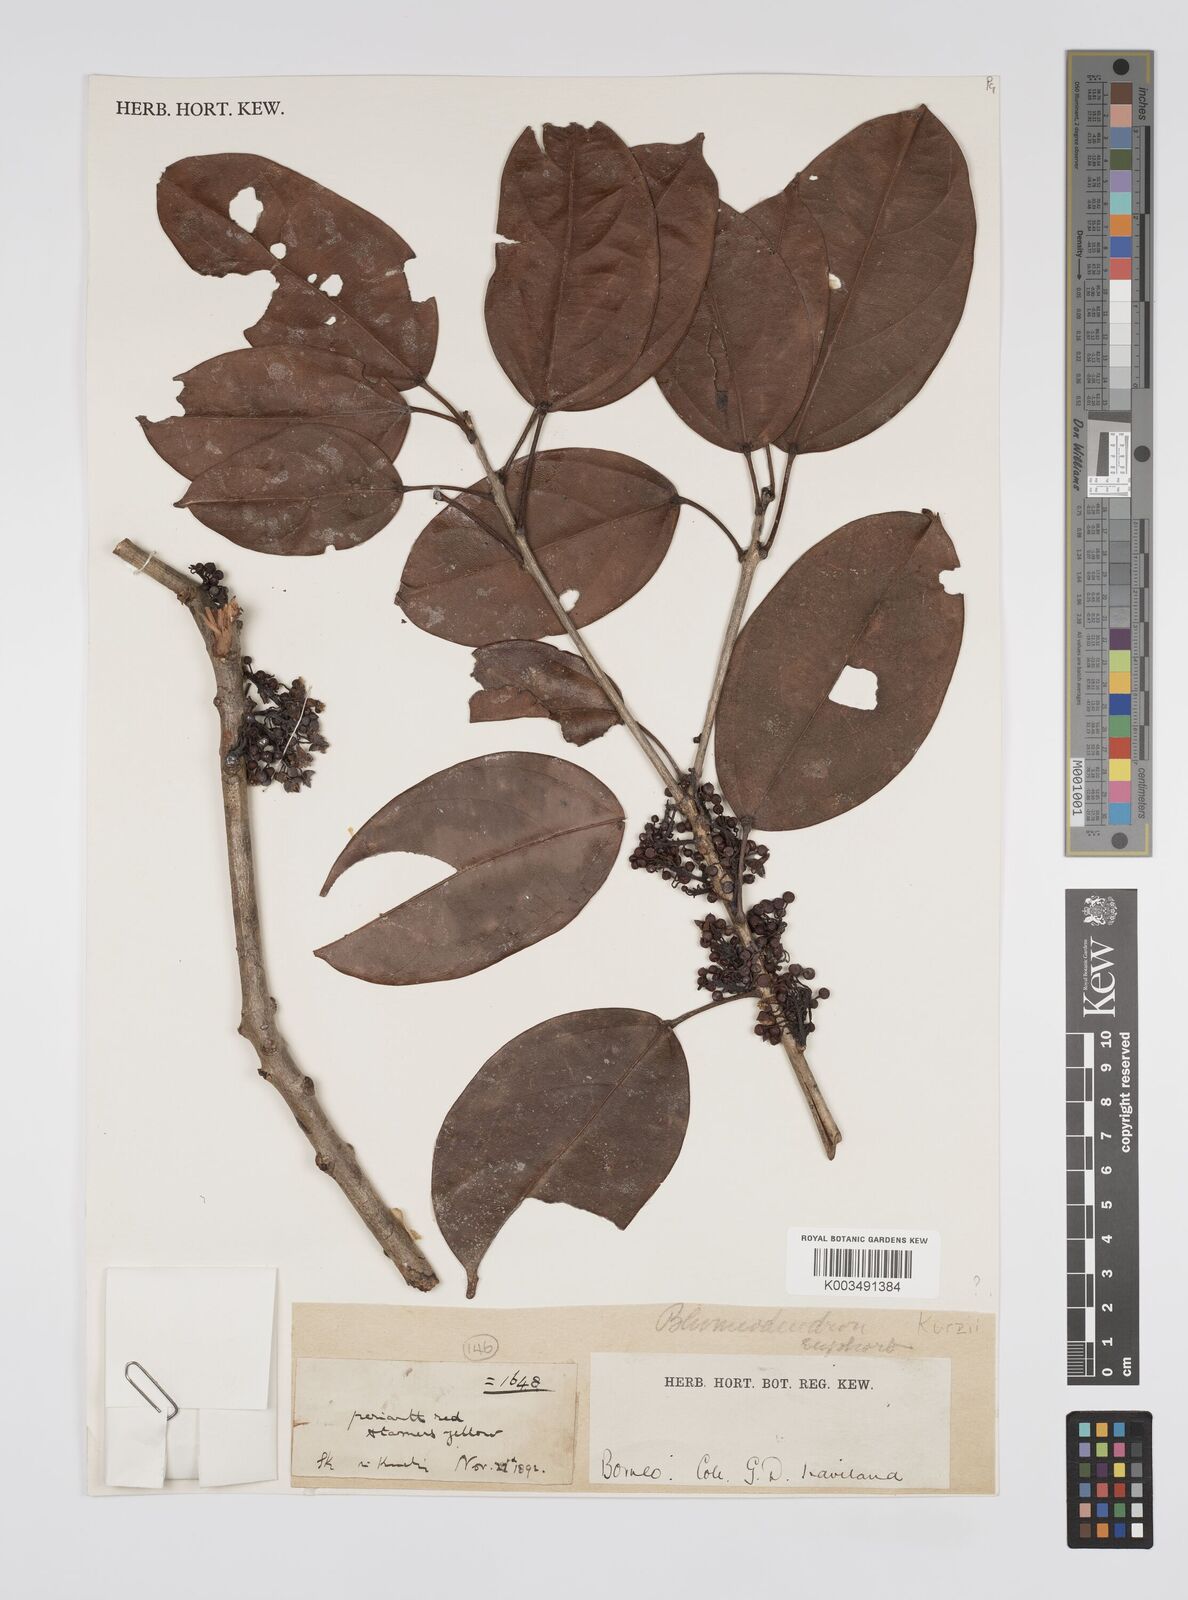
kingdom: Plantae
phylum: Tracheophyta
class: Magnoliopsida
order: Malpighiales
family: Euphorbiaceae
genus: Blumeodendron
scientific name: Blumeodendron kurzii
